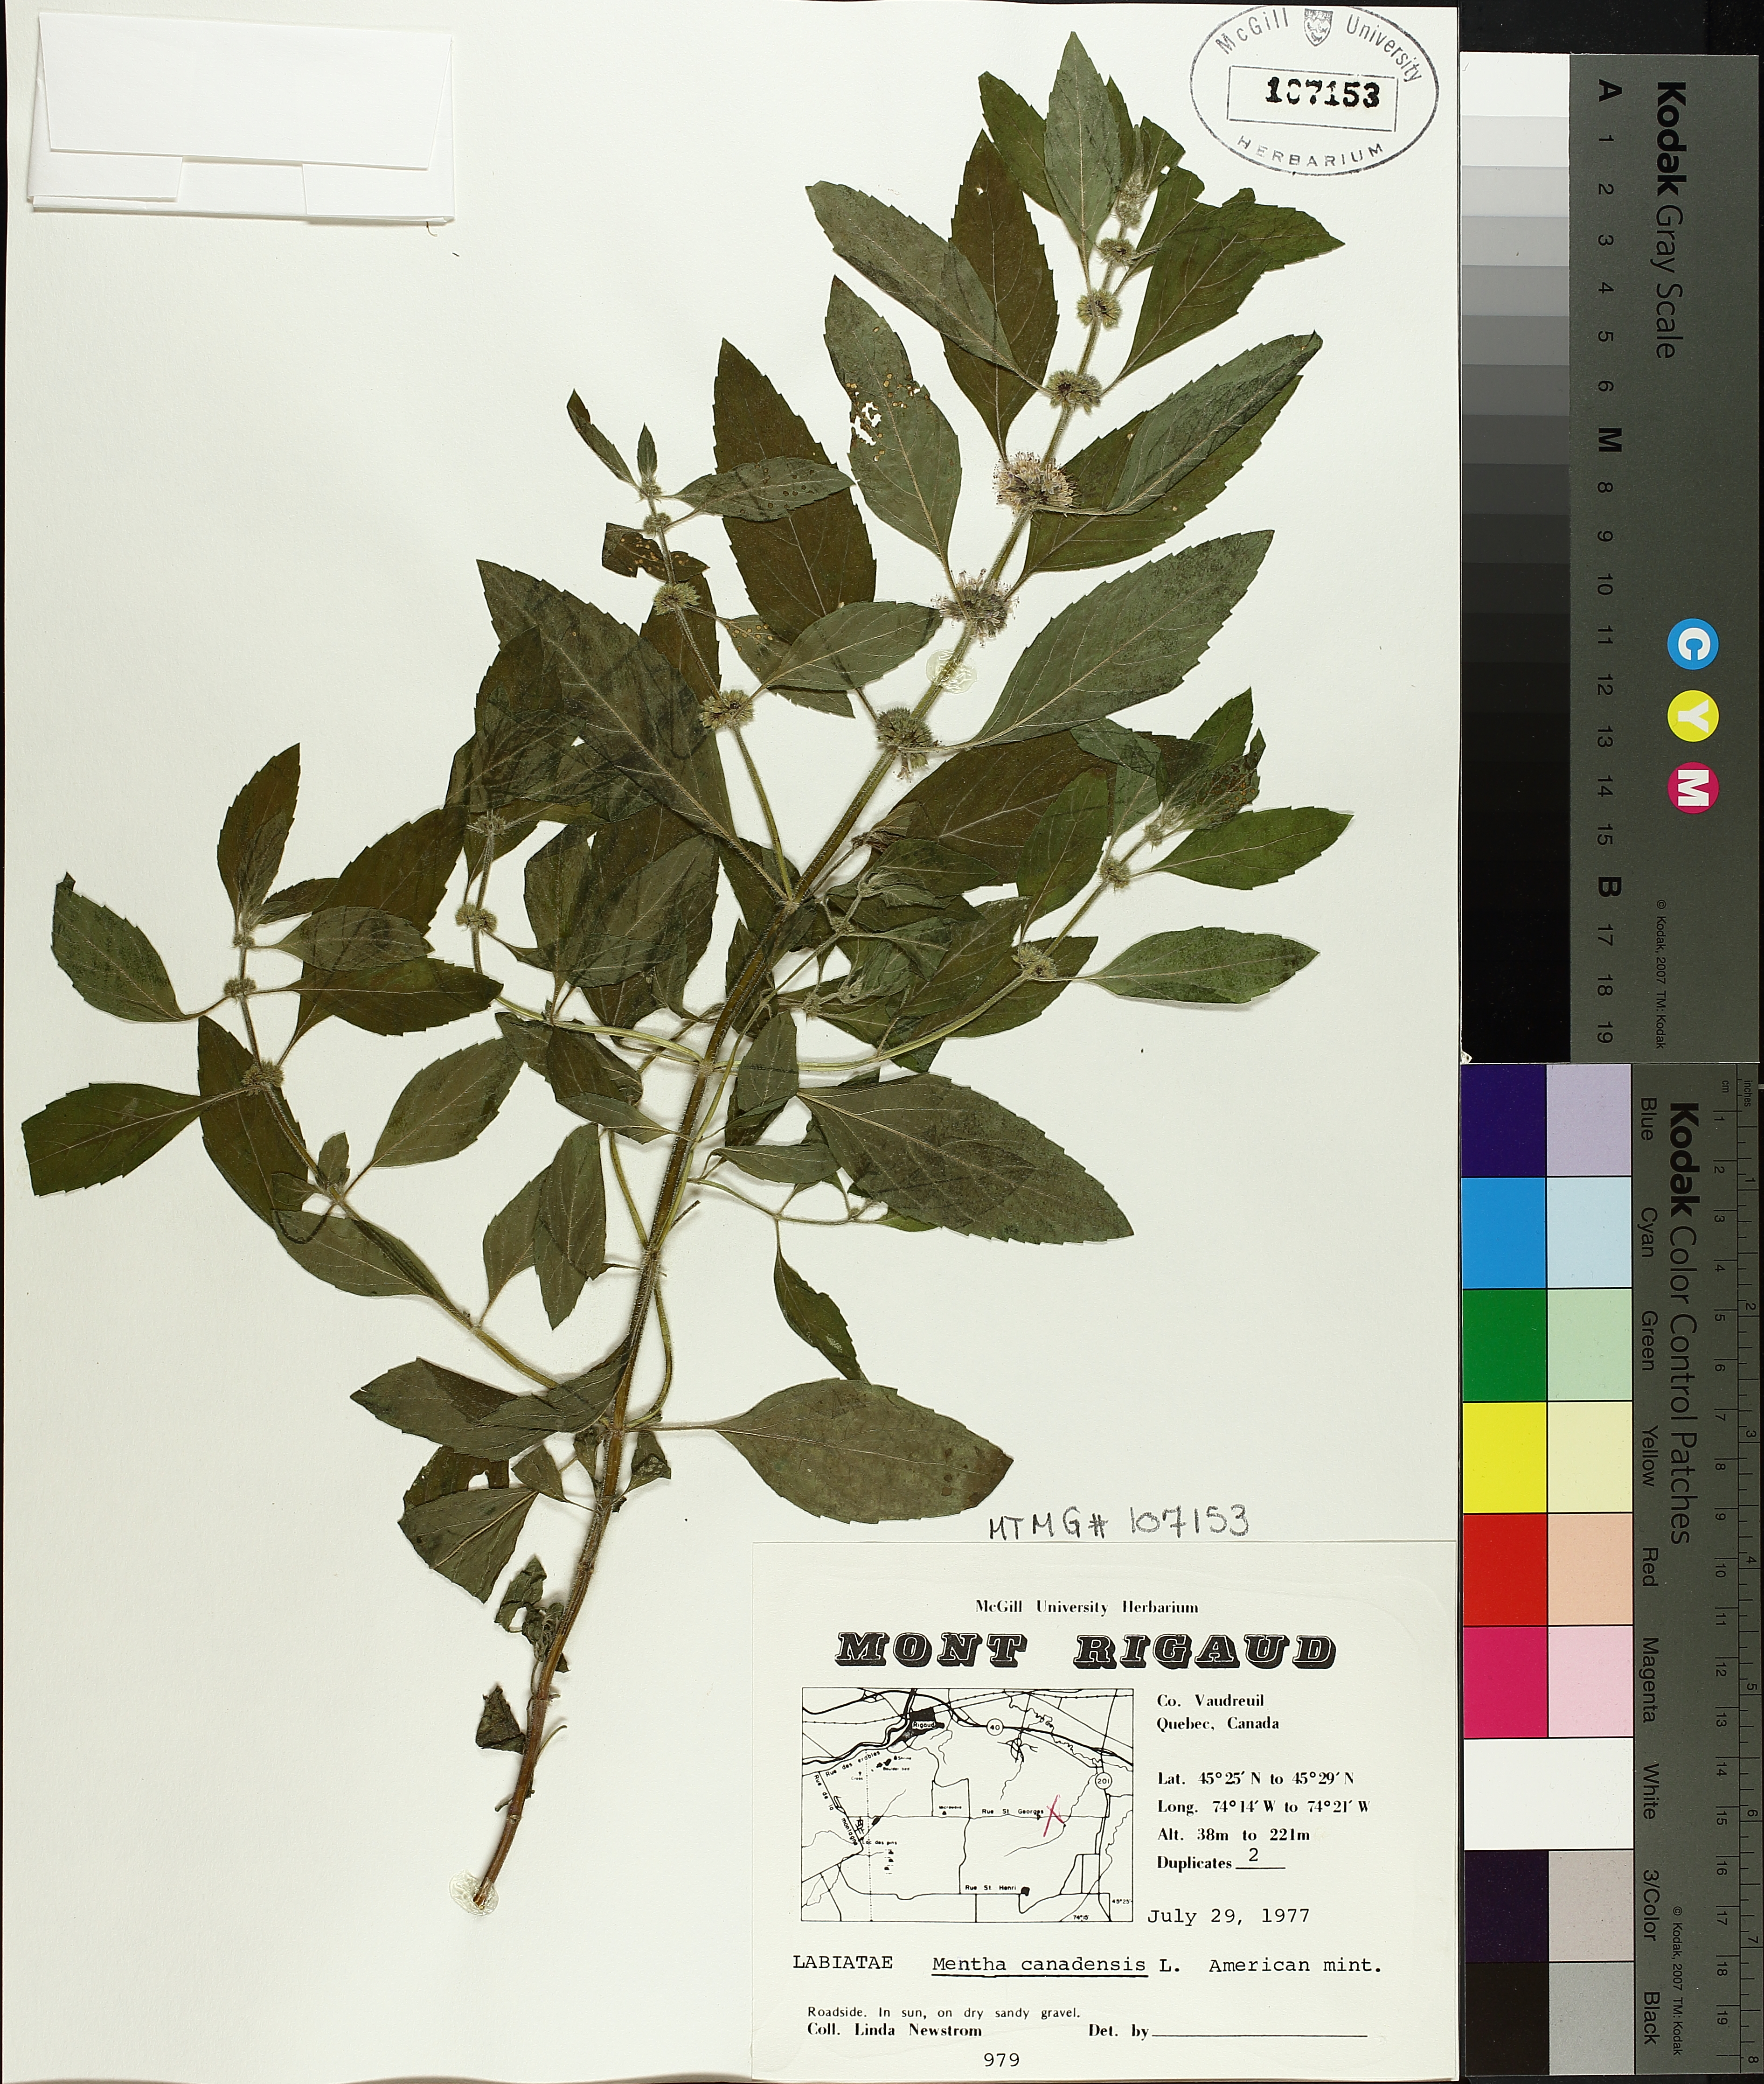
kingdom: Plantae
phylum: Tracheophyta
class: Magnoliopsida
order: Lamiales
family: Lamiaceae
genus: Mentha
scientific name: Mentha canadensis
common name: American corn mint
